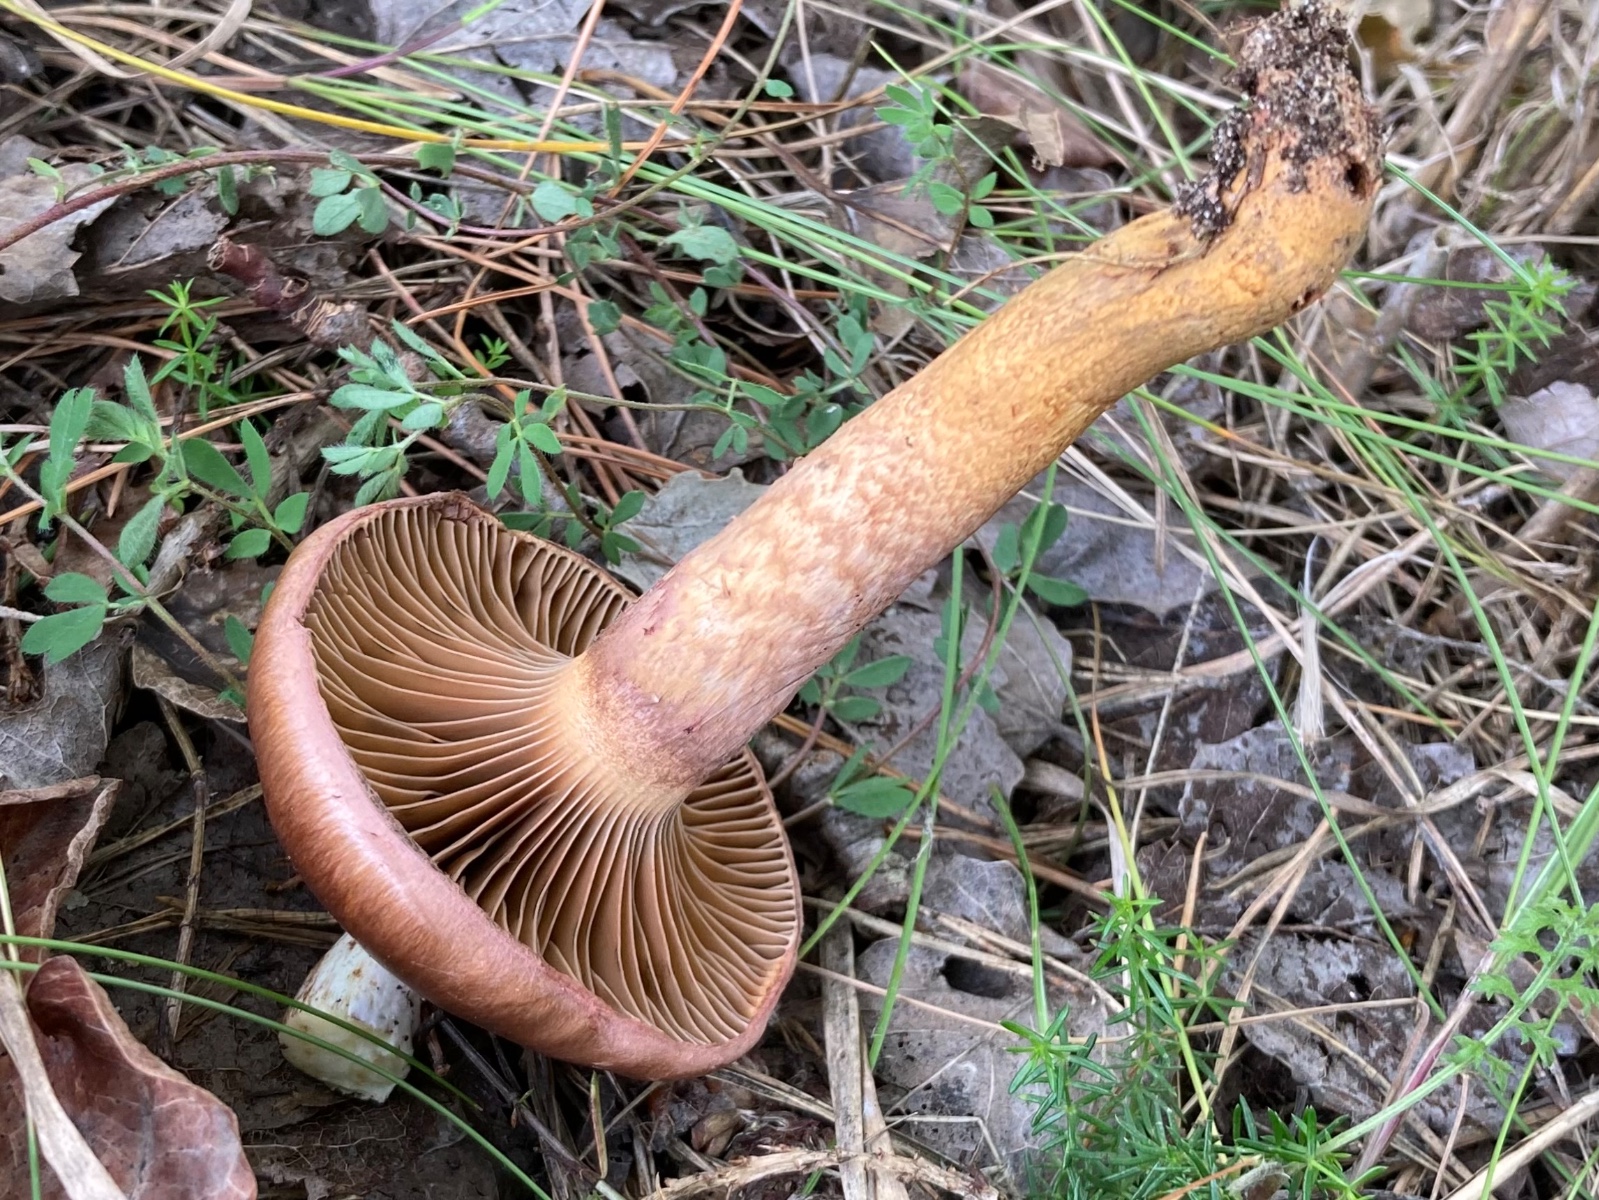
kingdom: Fungi
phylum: Basidiomycota
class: Agaricomycetes
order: Boletales
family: Gomphidiaceae
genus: Chroogomphus
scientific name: Chroogomphus rutilus
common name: brunrød slimslør
